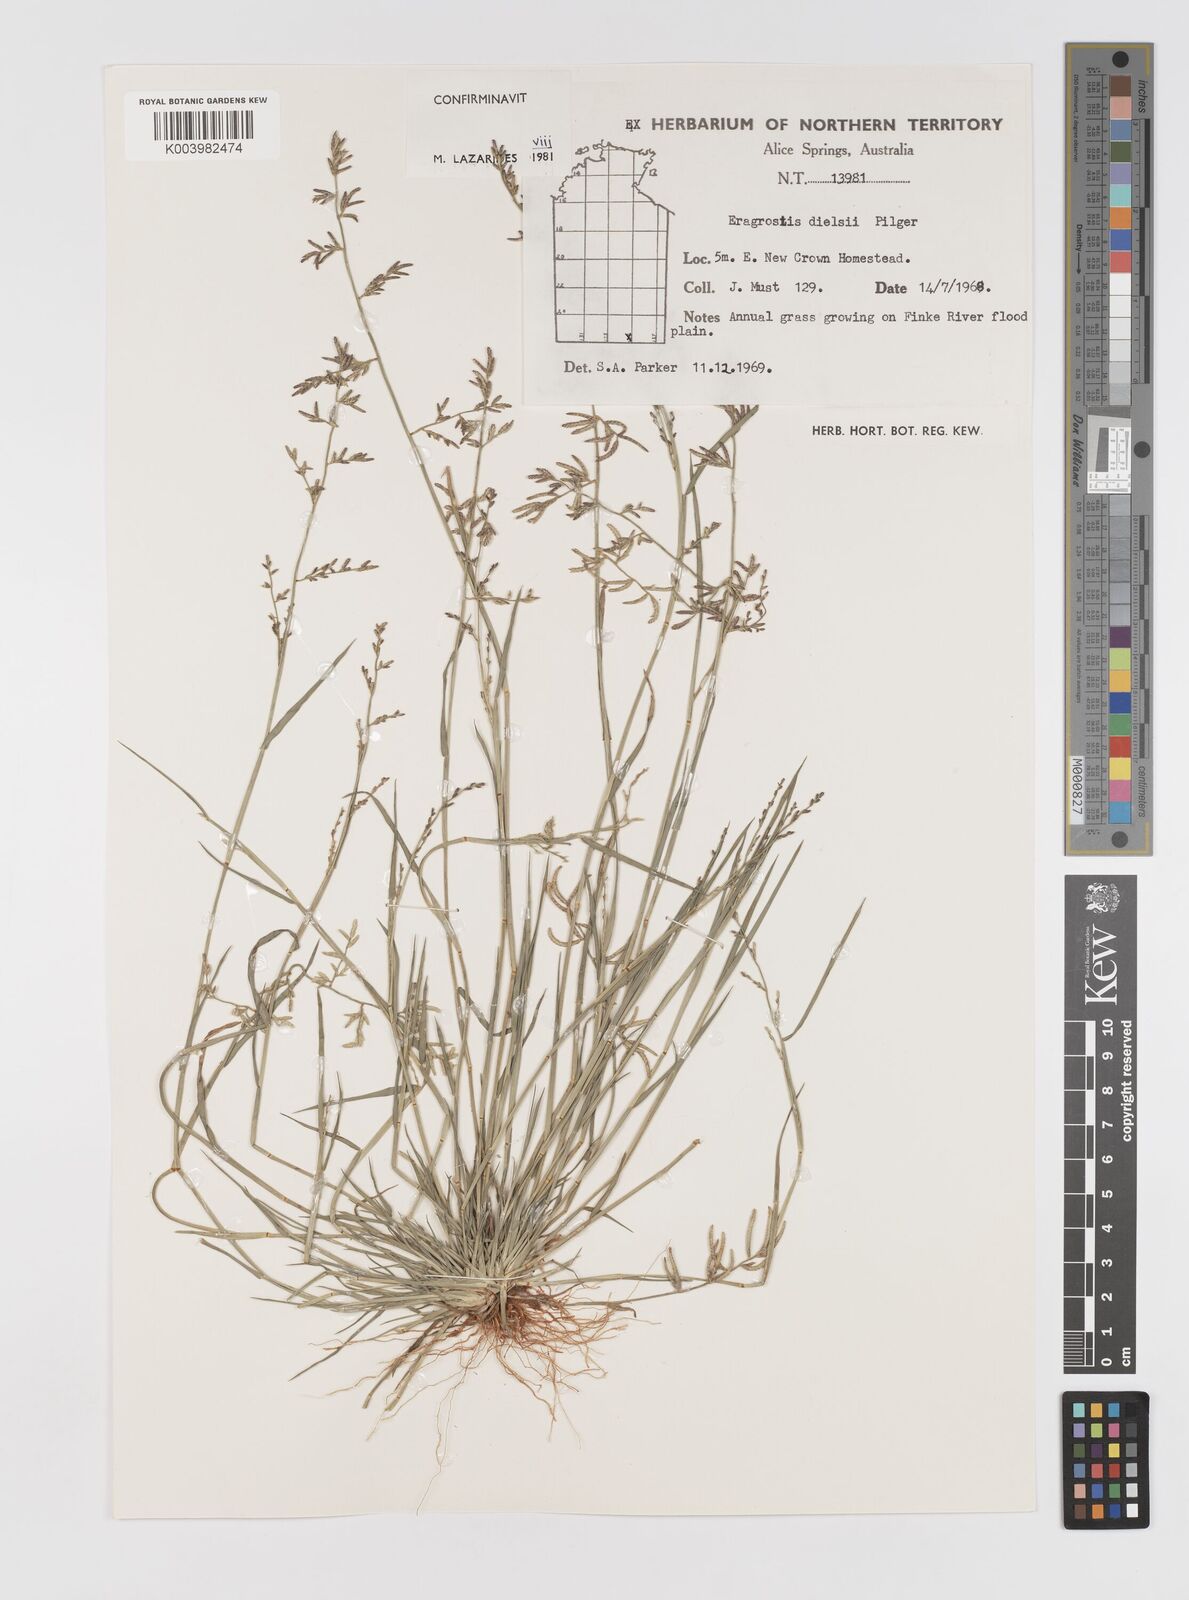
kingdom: Plantae
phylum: Tracheophyta
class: Liliopsida
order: Poales
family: Poaceae
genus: Eragrostis
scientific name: Eragrostis dielsii
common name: Lovegrass
